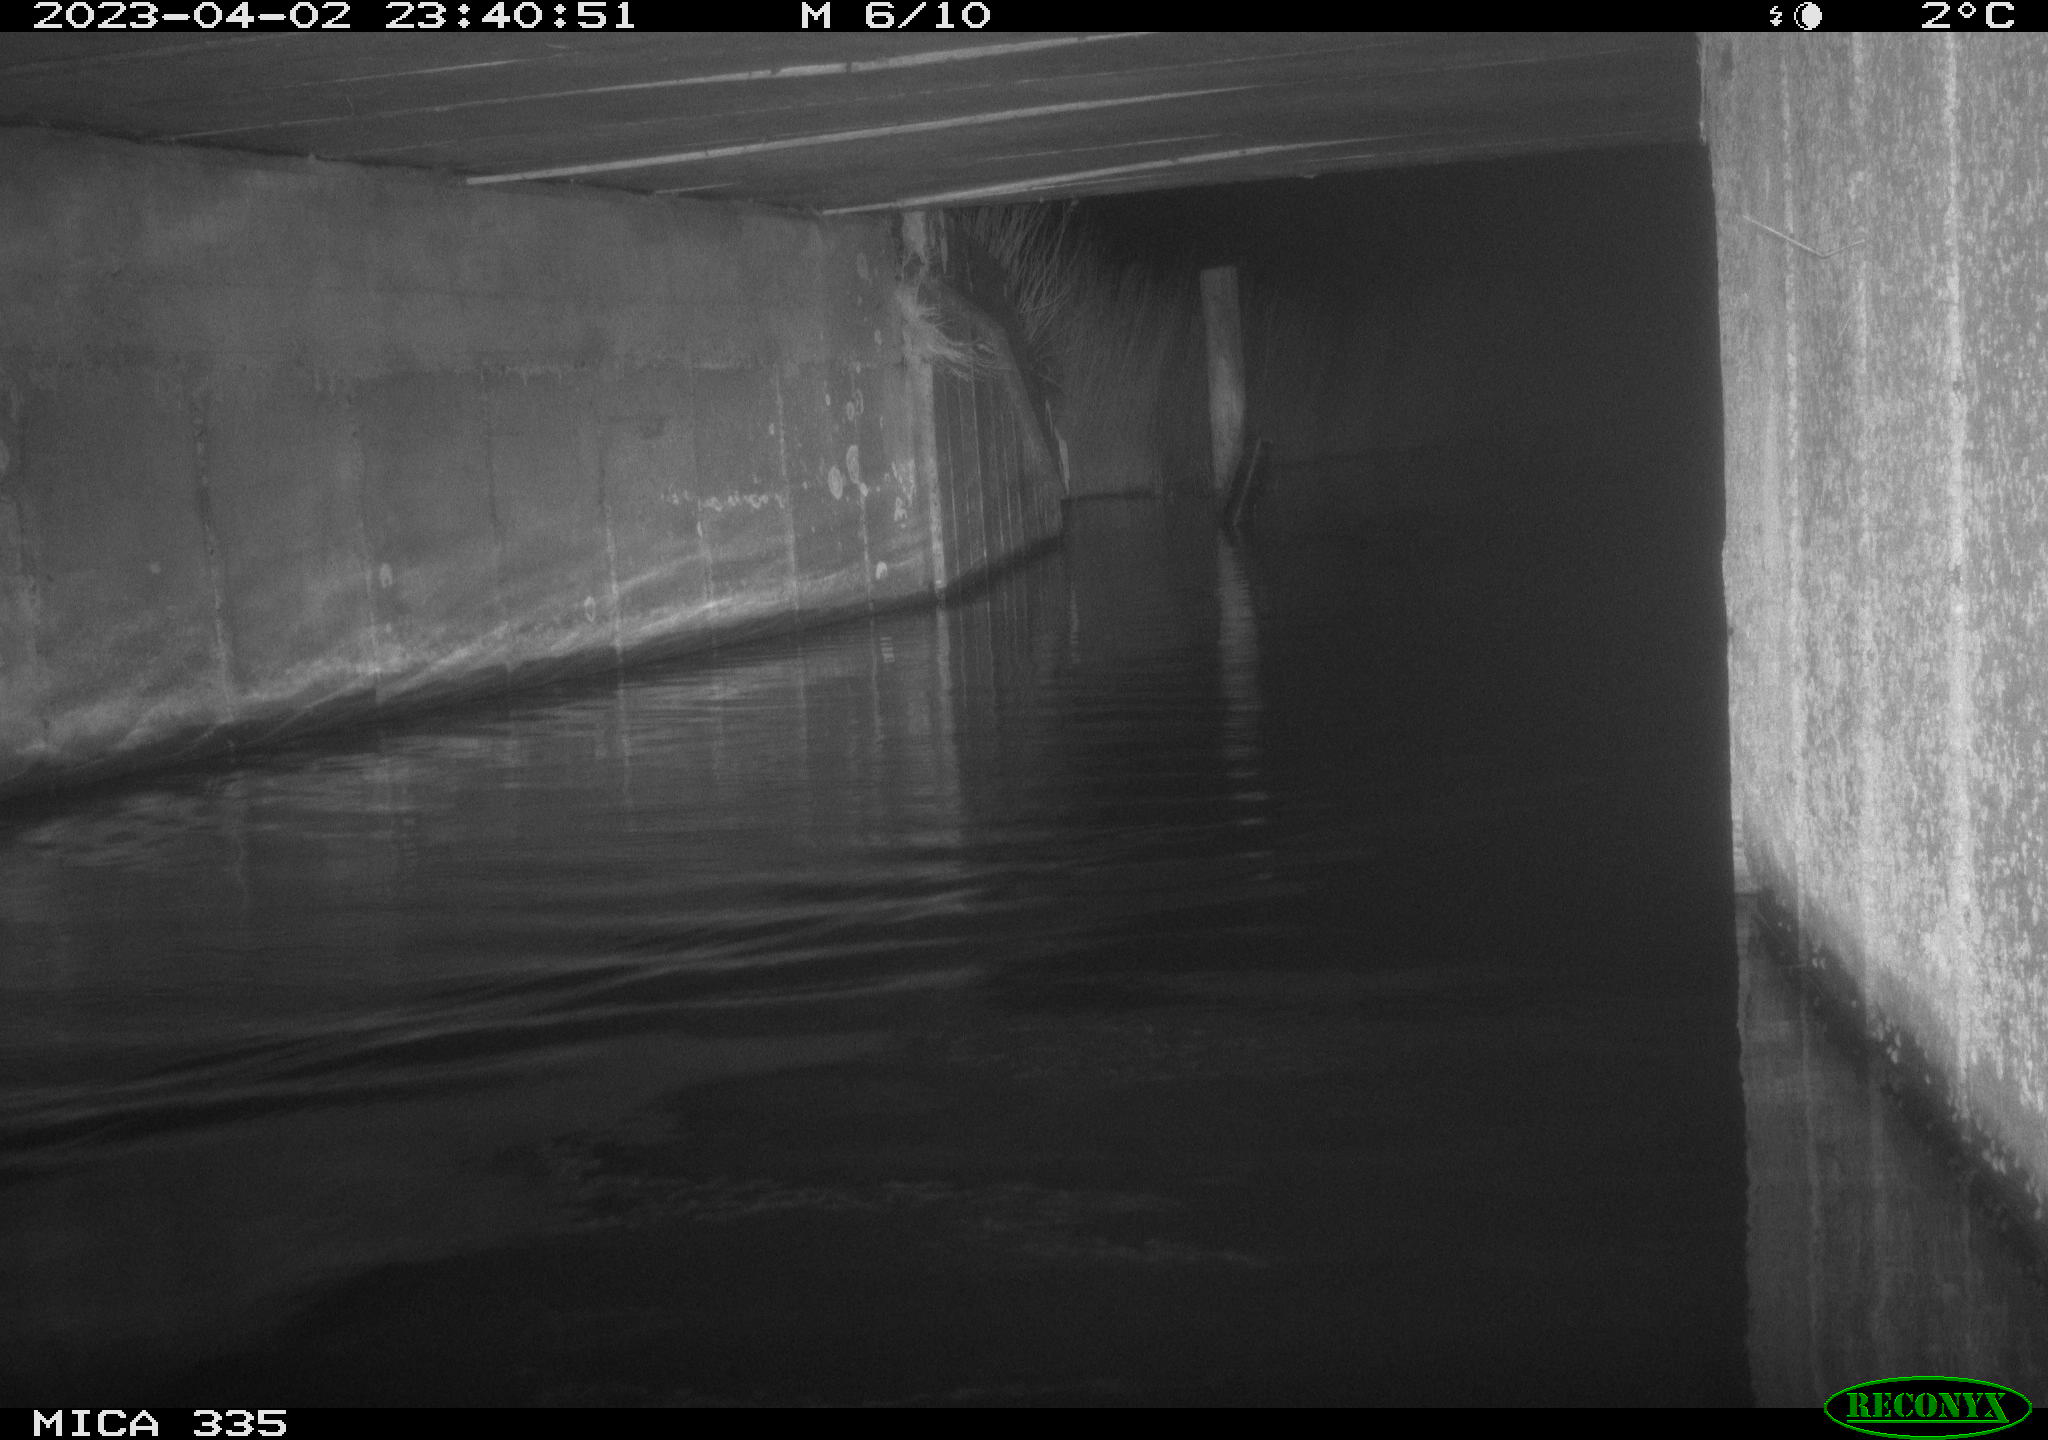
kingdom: Animalia
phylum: Chordata
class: Aves
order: Anseriformes
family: Anatidae
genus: Anas
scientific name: Anas
